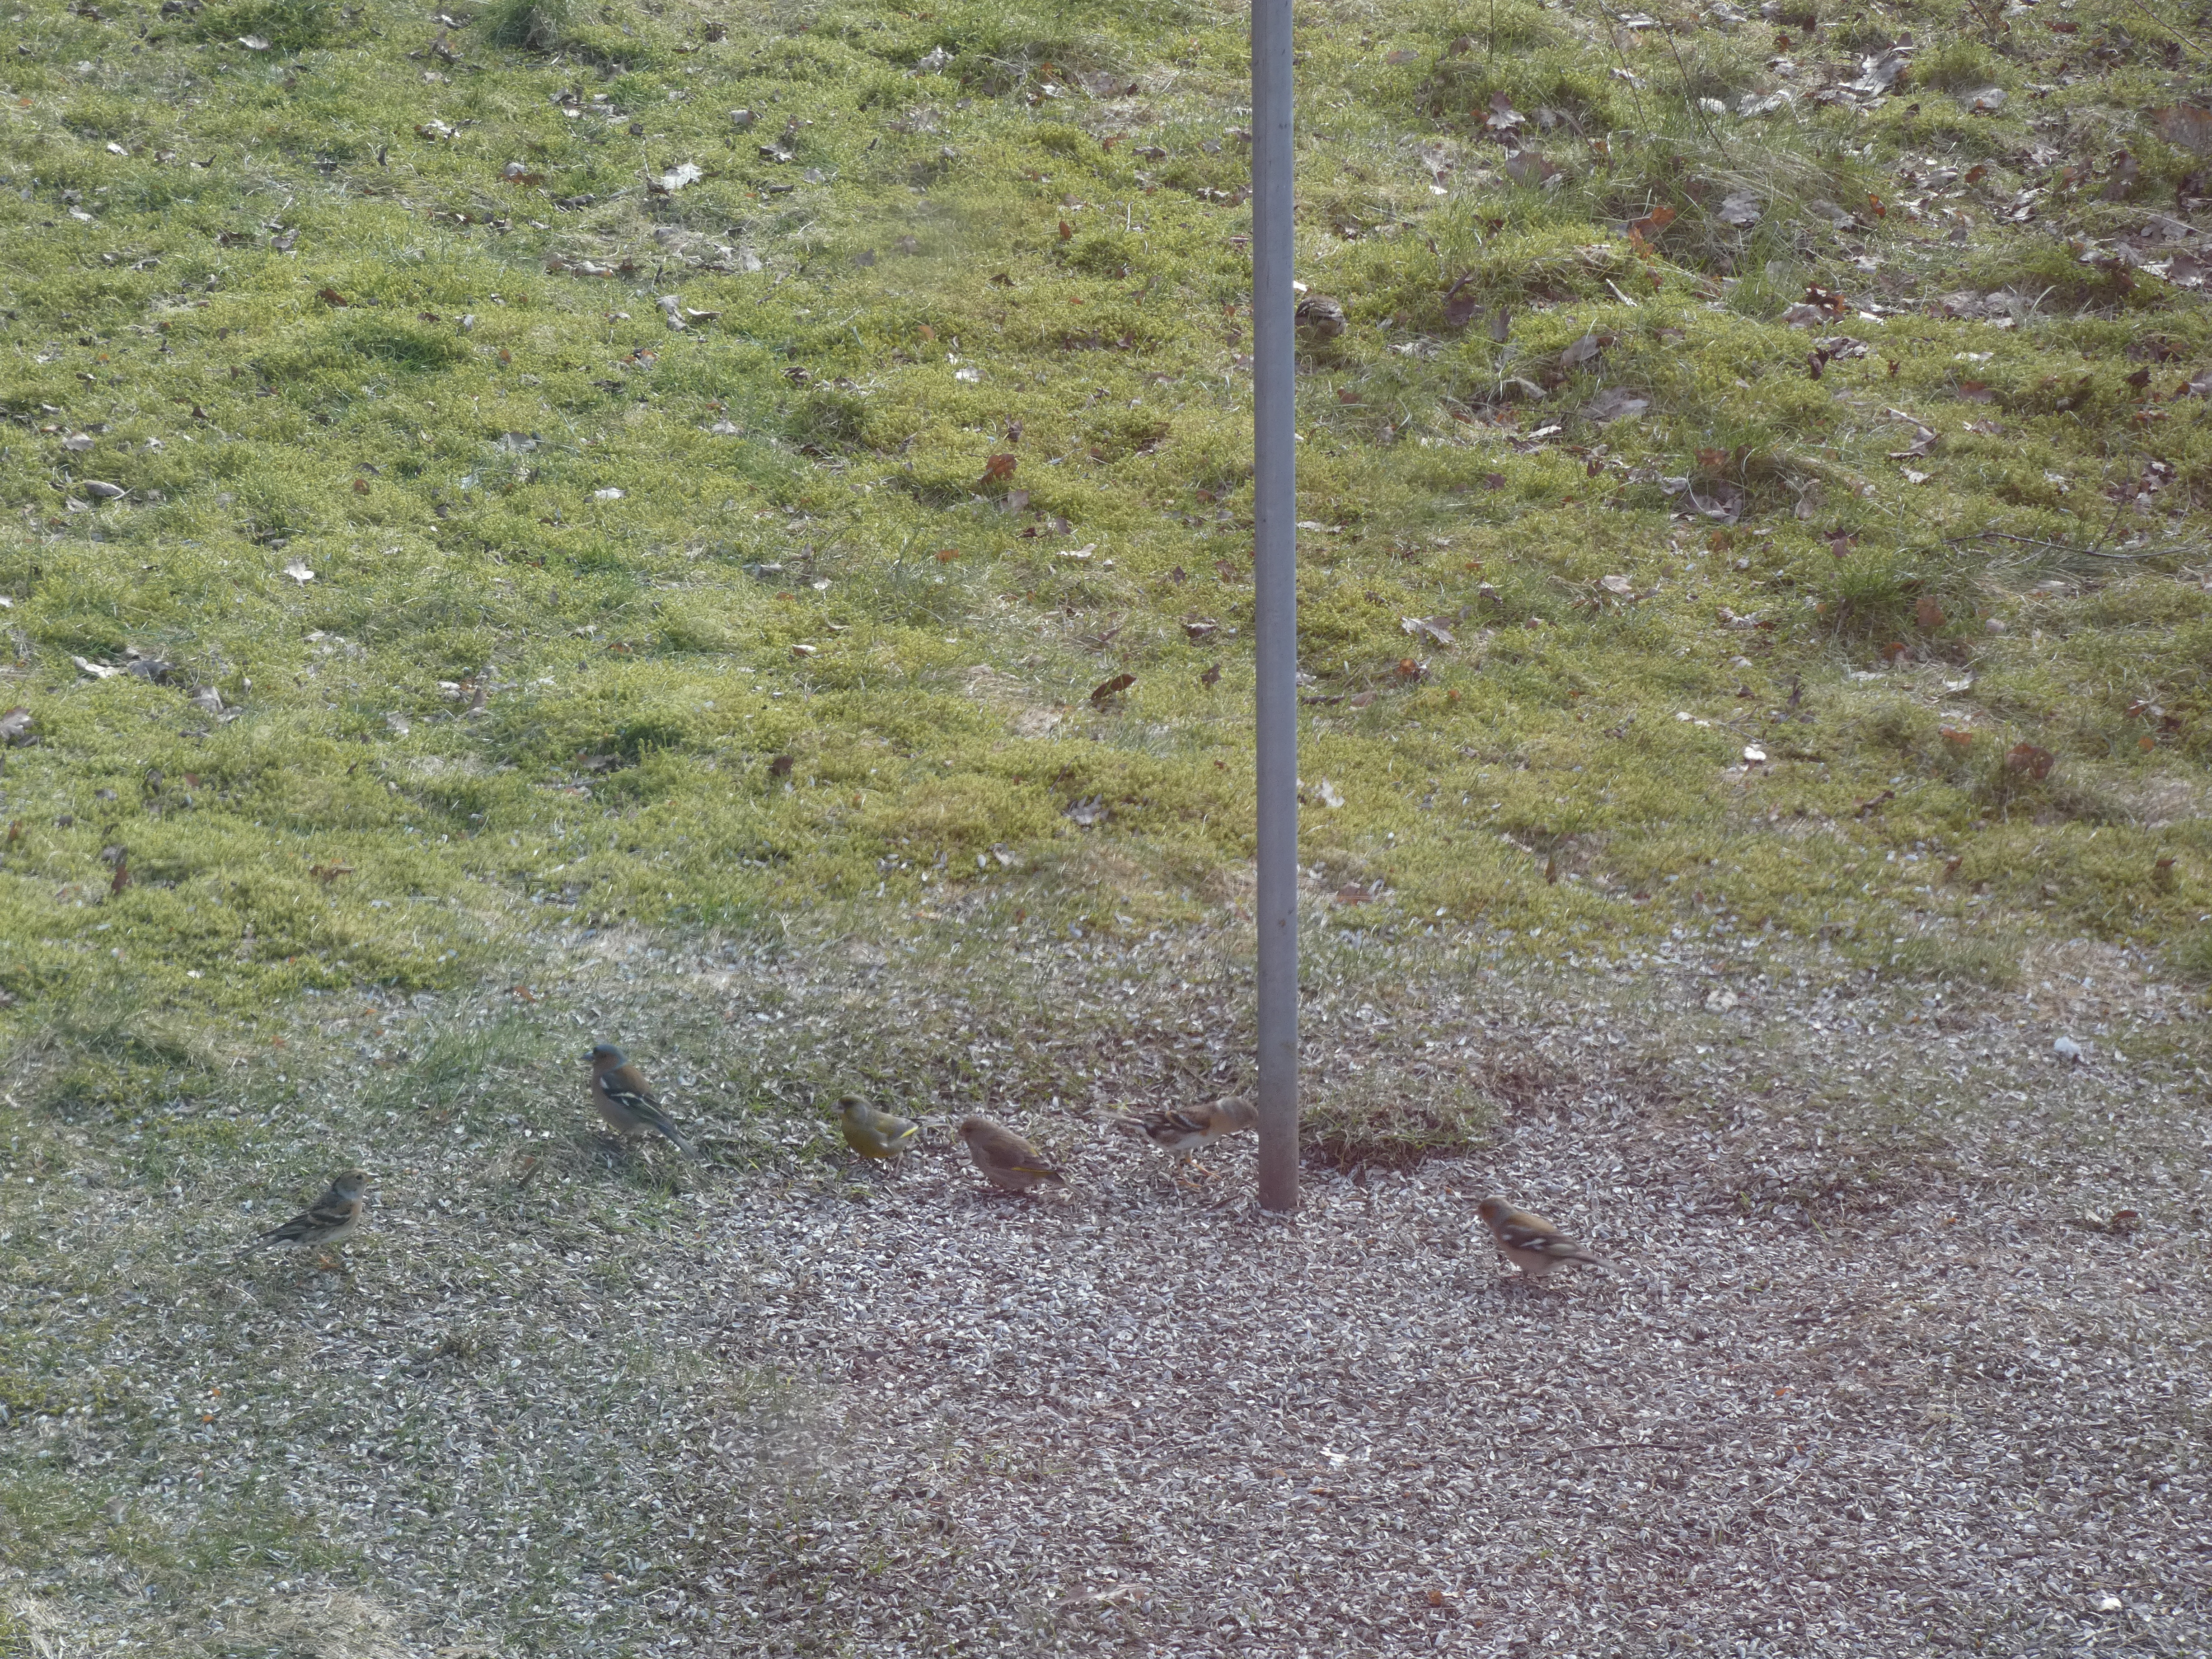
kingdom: Animalia
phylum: Chordata
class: Aves
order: Passeriformes
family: Fringillidae
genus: Fringilla
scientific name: Fringilla coelebs
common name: Bogfinke
